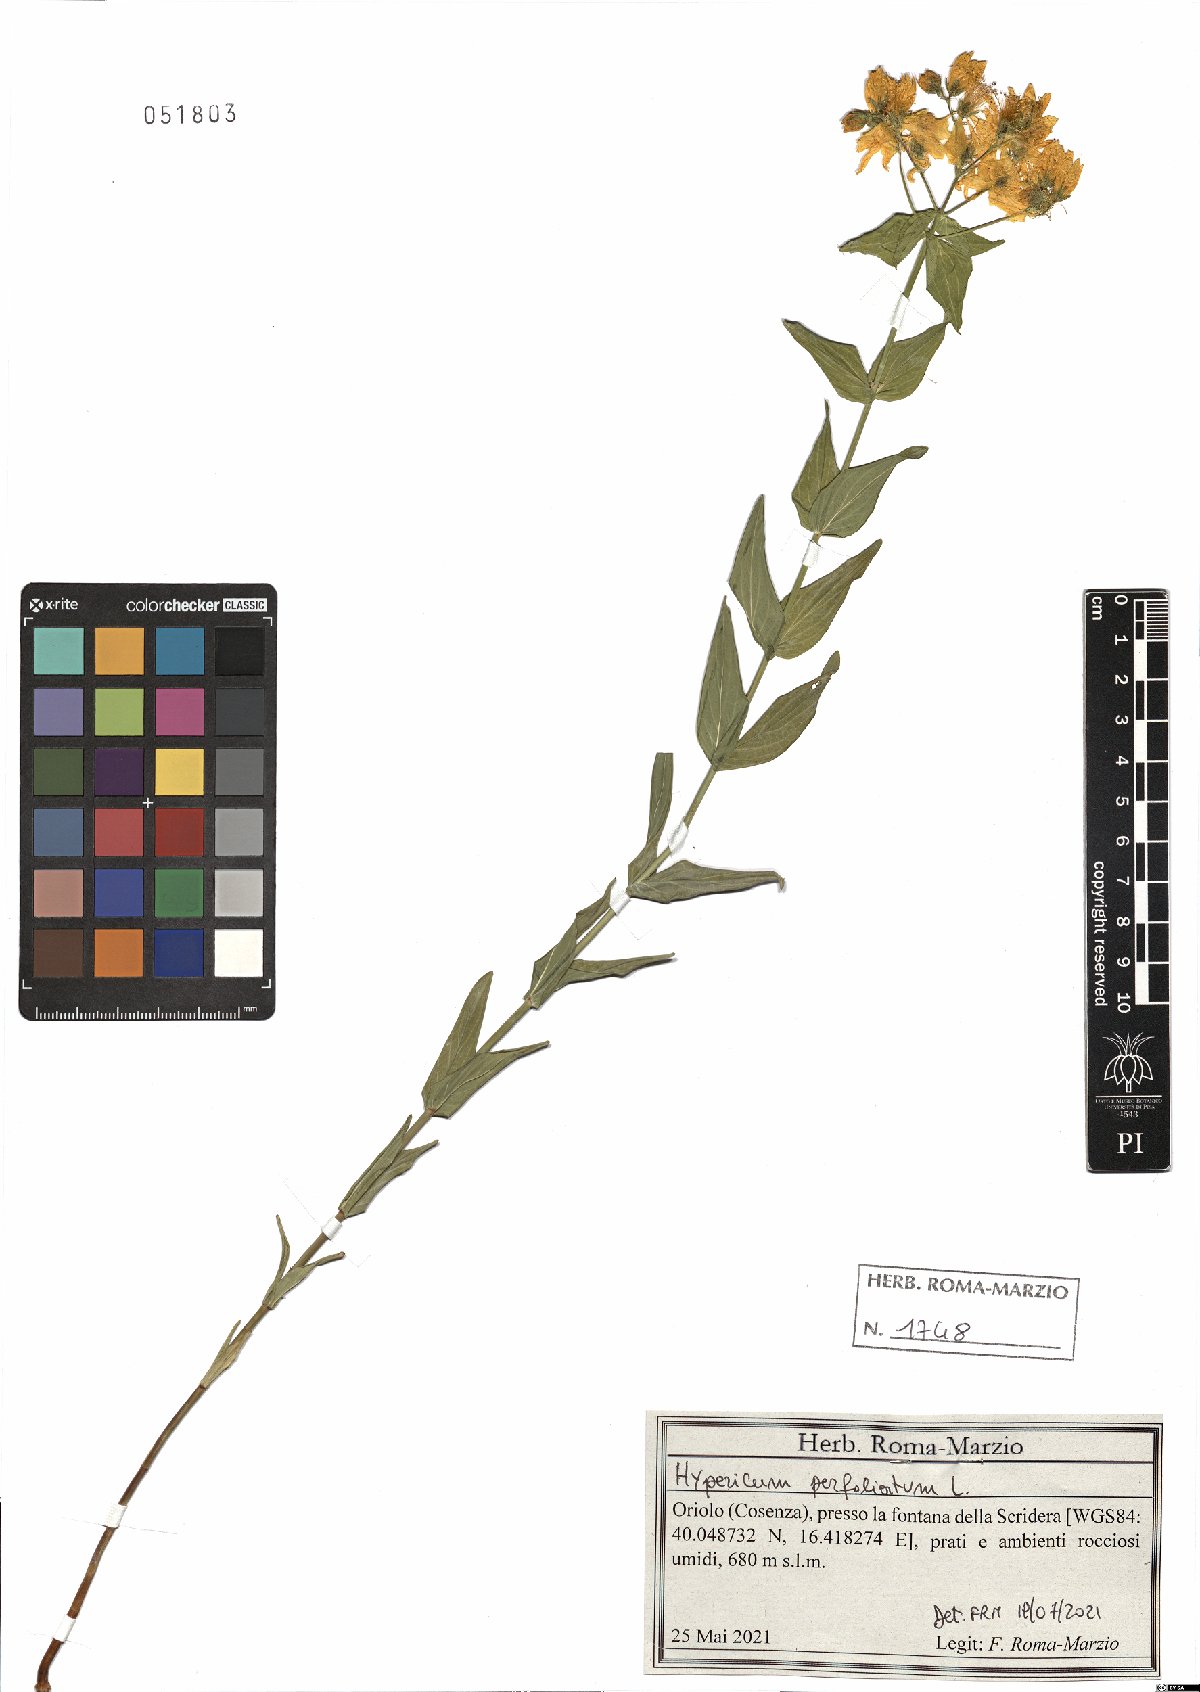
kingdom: Plantae
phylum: Tracheophyta
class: Magnoliopsida
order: Malpighiales
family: Hypericaceae
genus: Hypericum
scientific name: Hypericum perfoliatum
